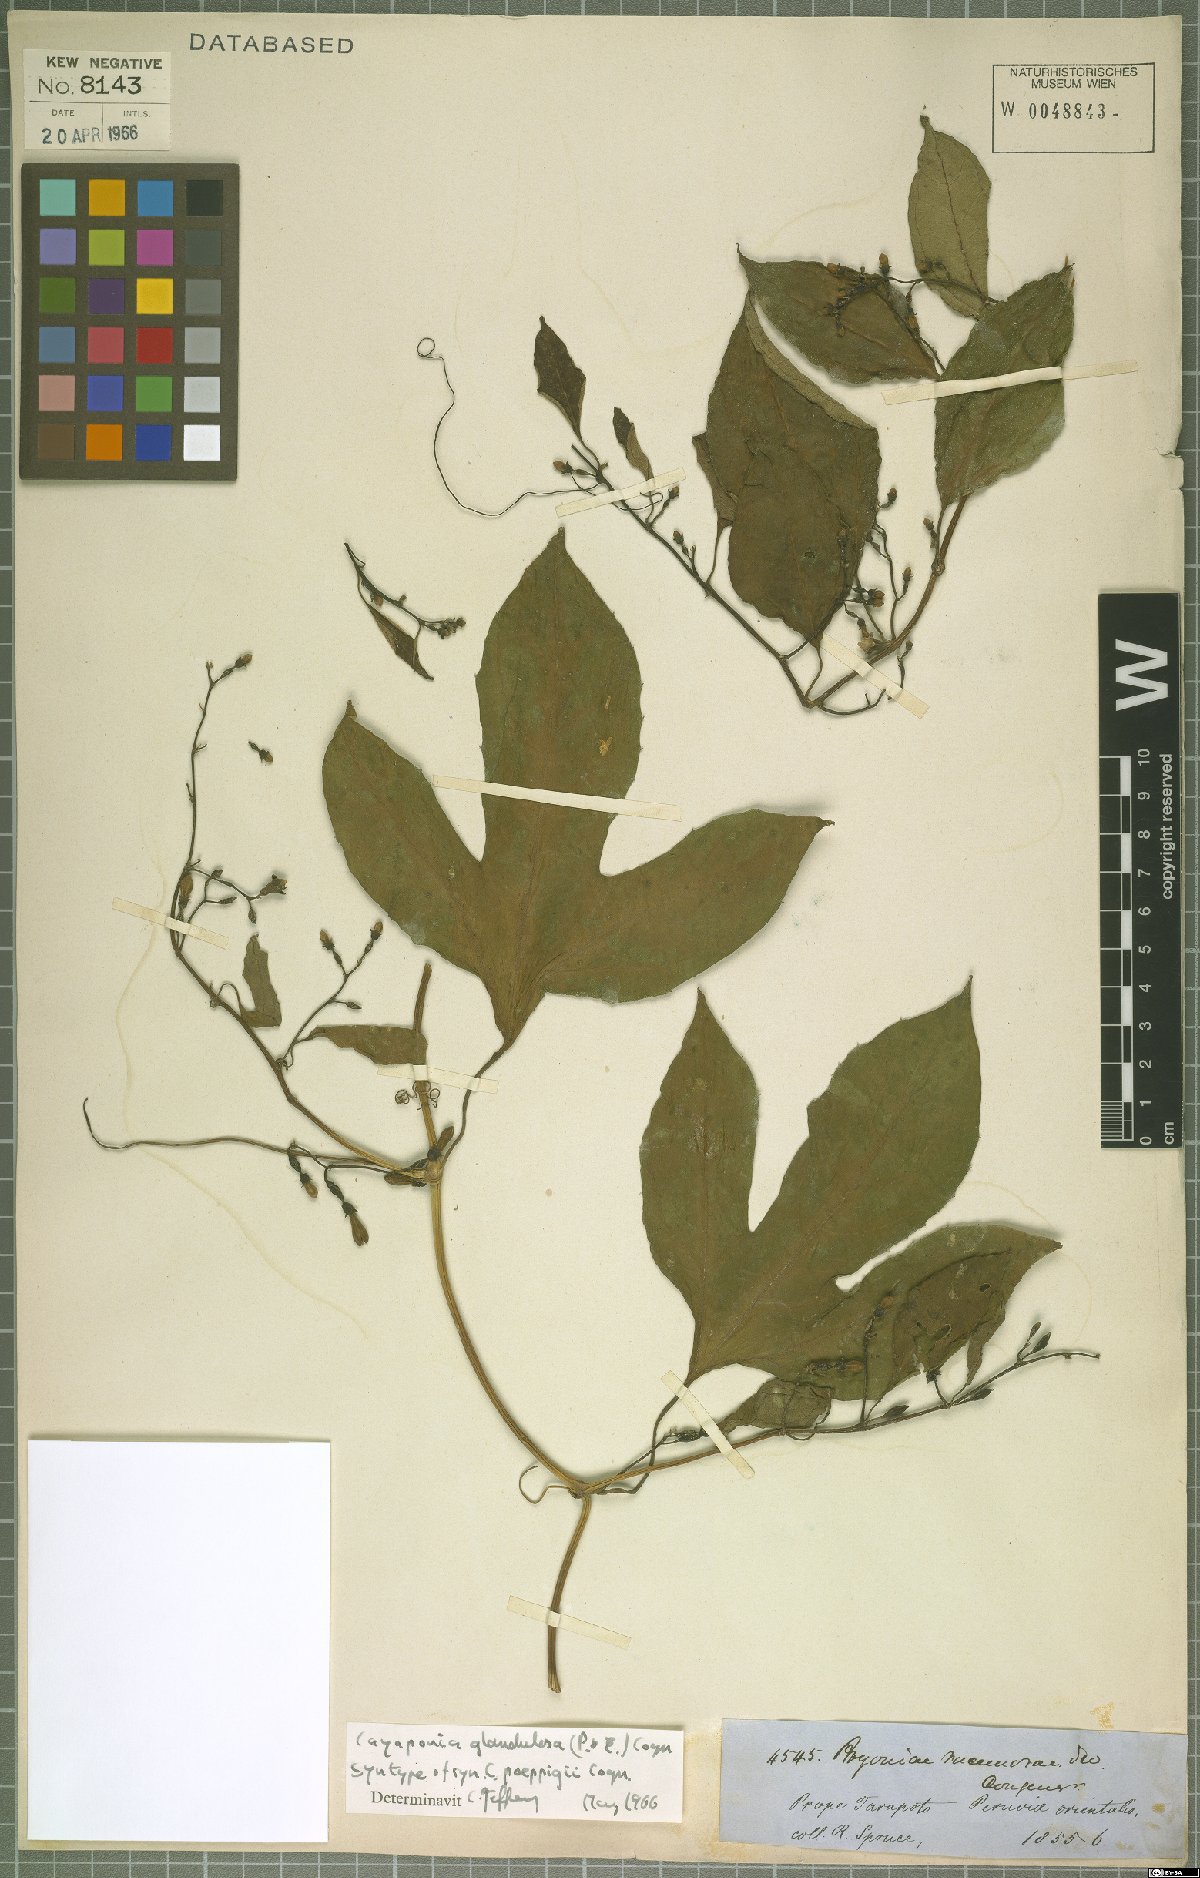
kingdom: Plantae
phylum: Tracheophyta
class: Magnoliopsida
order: Cucurbitales
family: Cucurbitaceae
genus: Cayaponia
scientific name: Cayaponia glandulosa
